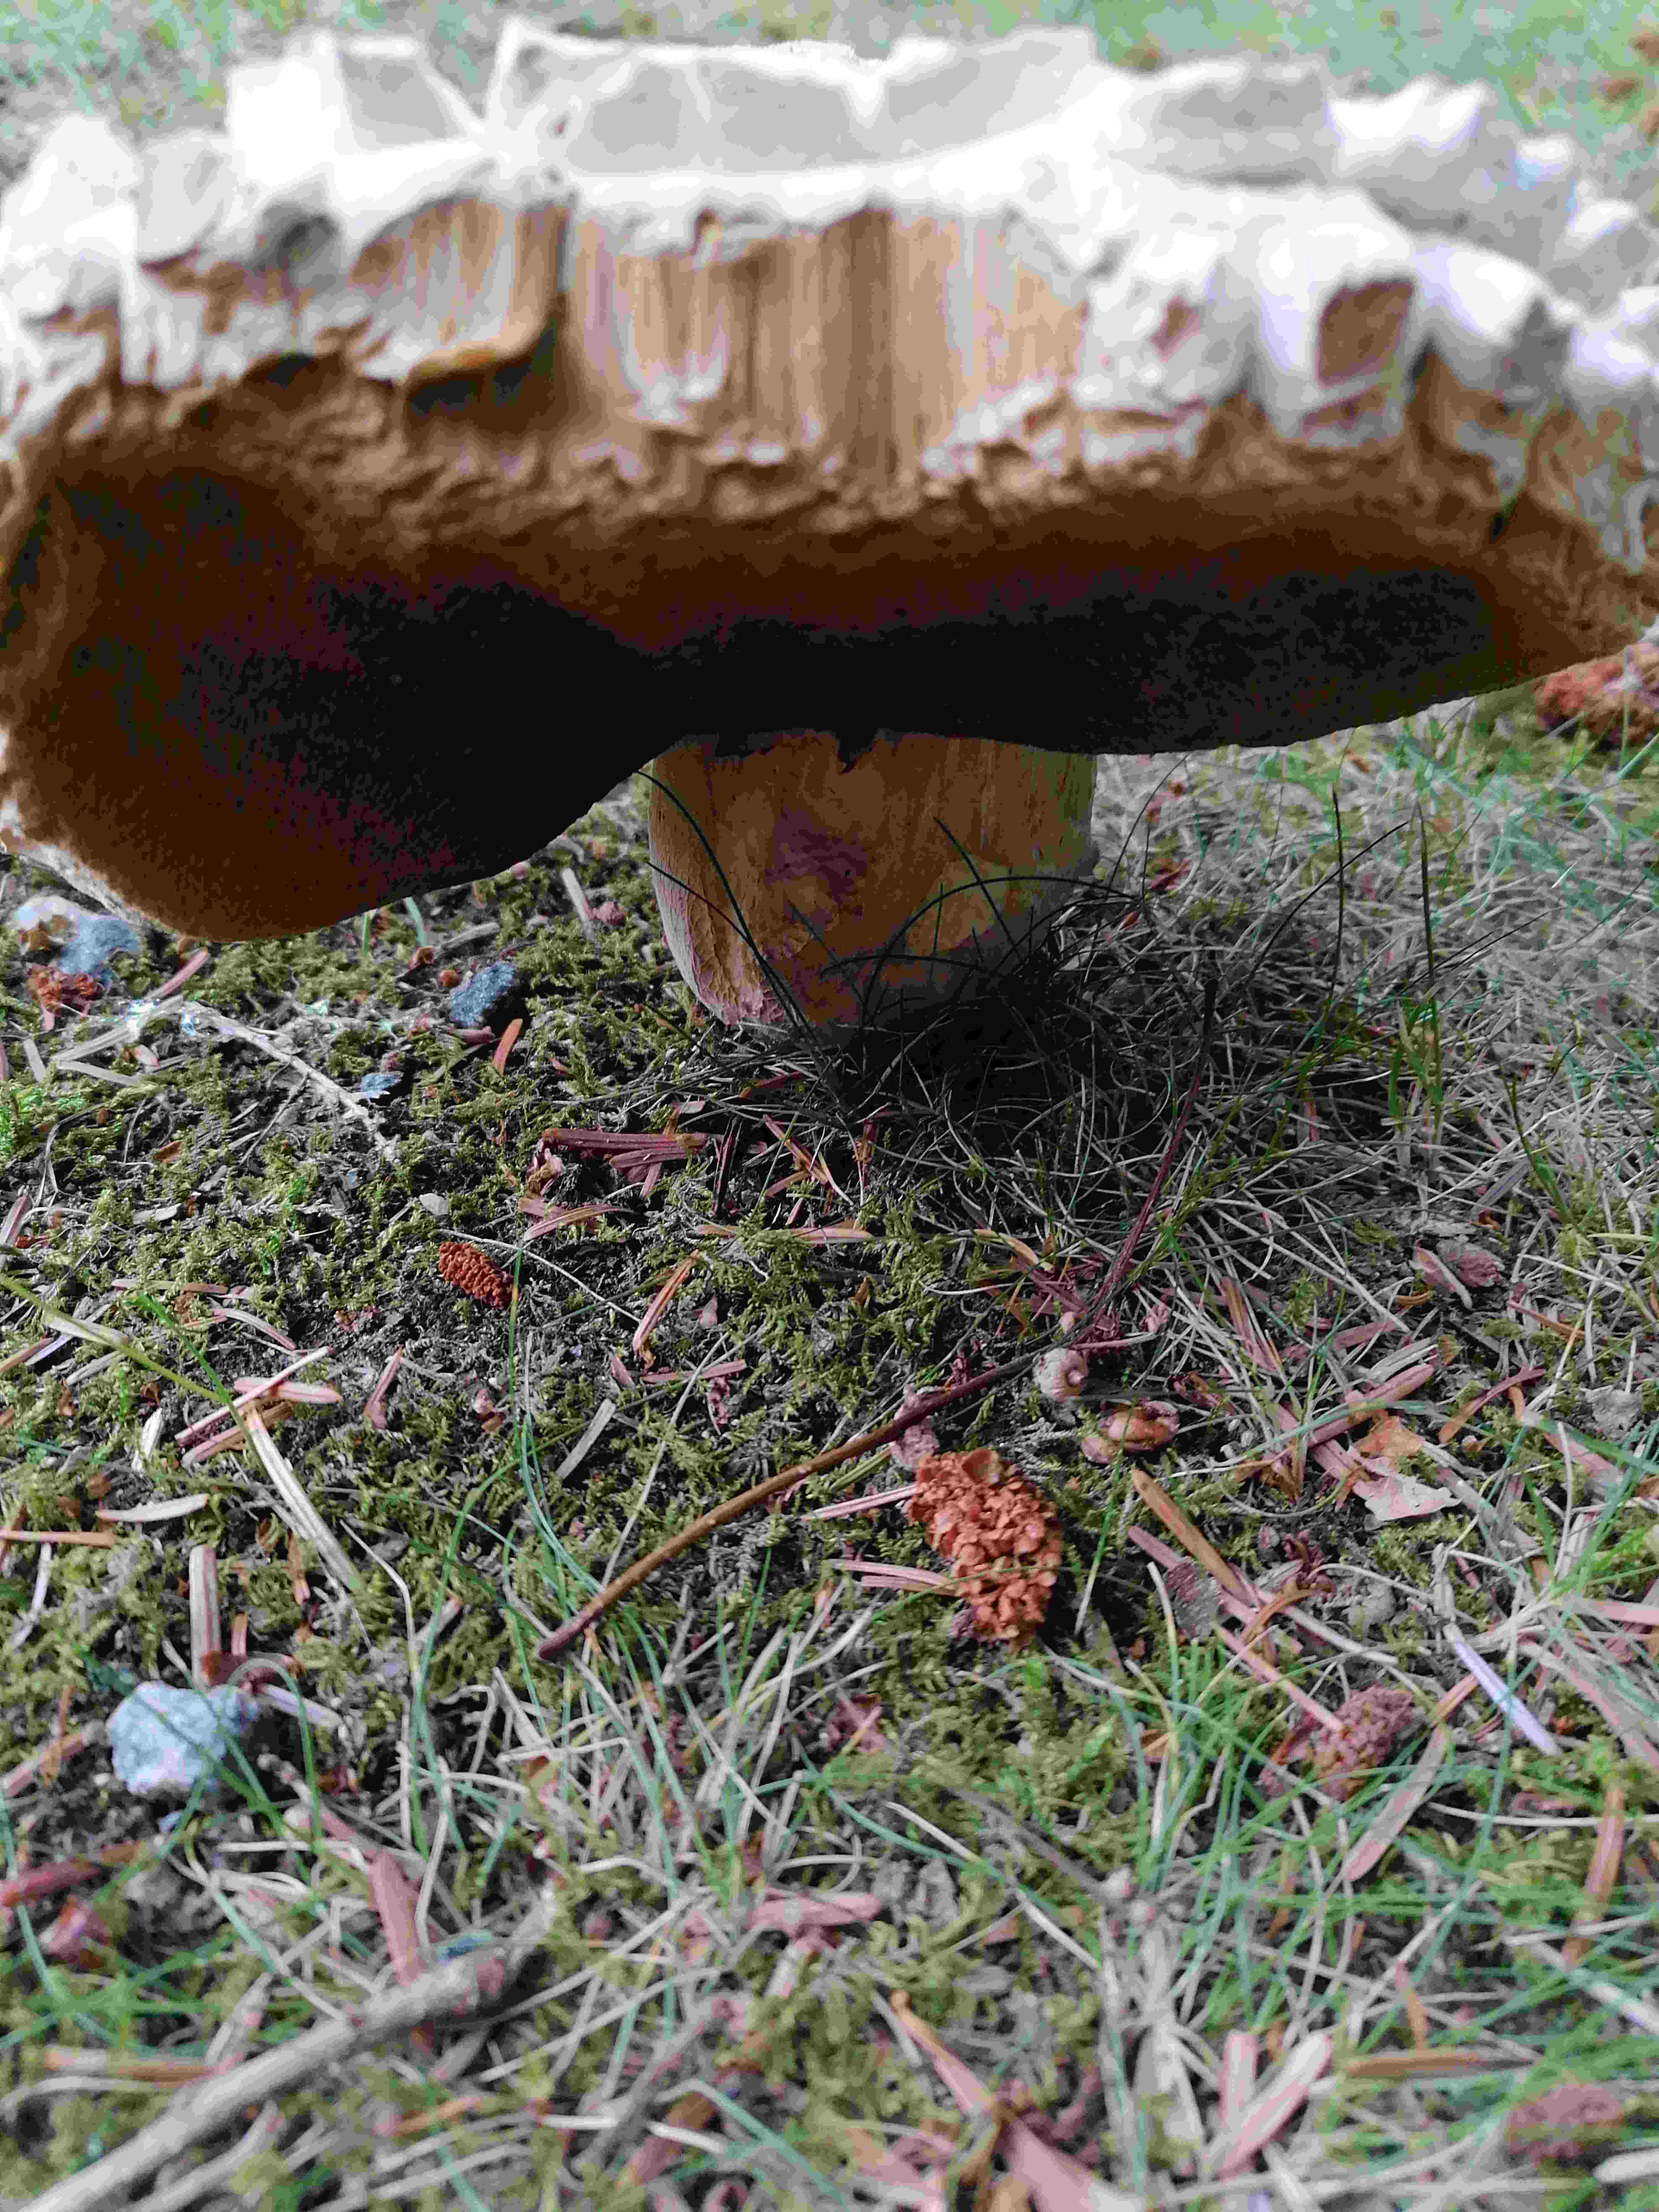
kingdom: Fungi
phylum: Basidiomycota
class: Agaricomycetes
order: Boletales
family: Boletaceae
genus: Boletus
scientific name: Boletus reticulatus
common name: sommer-rørhat
